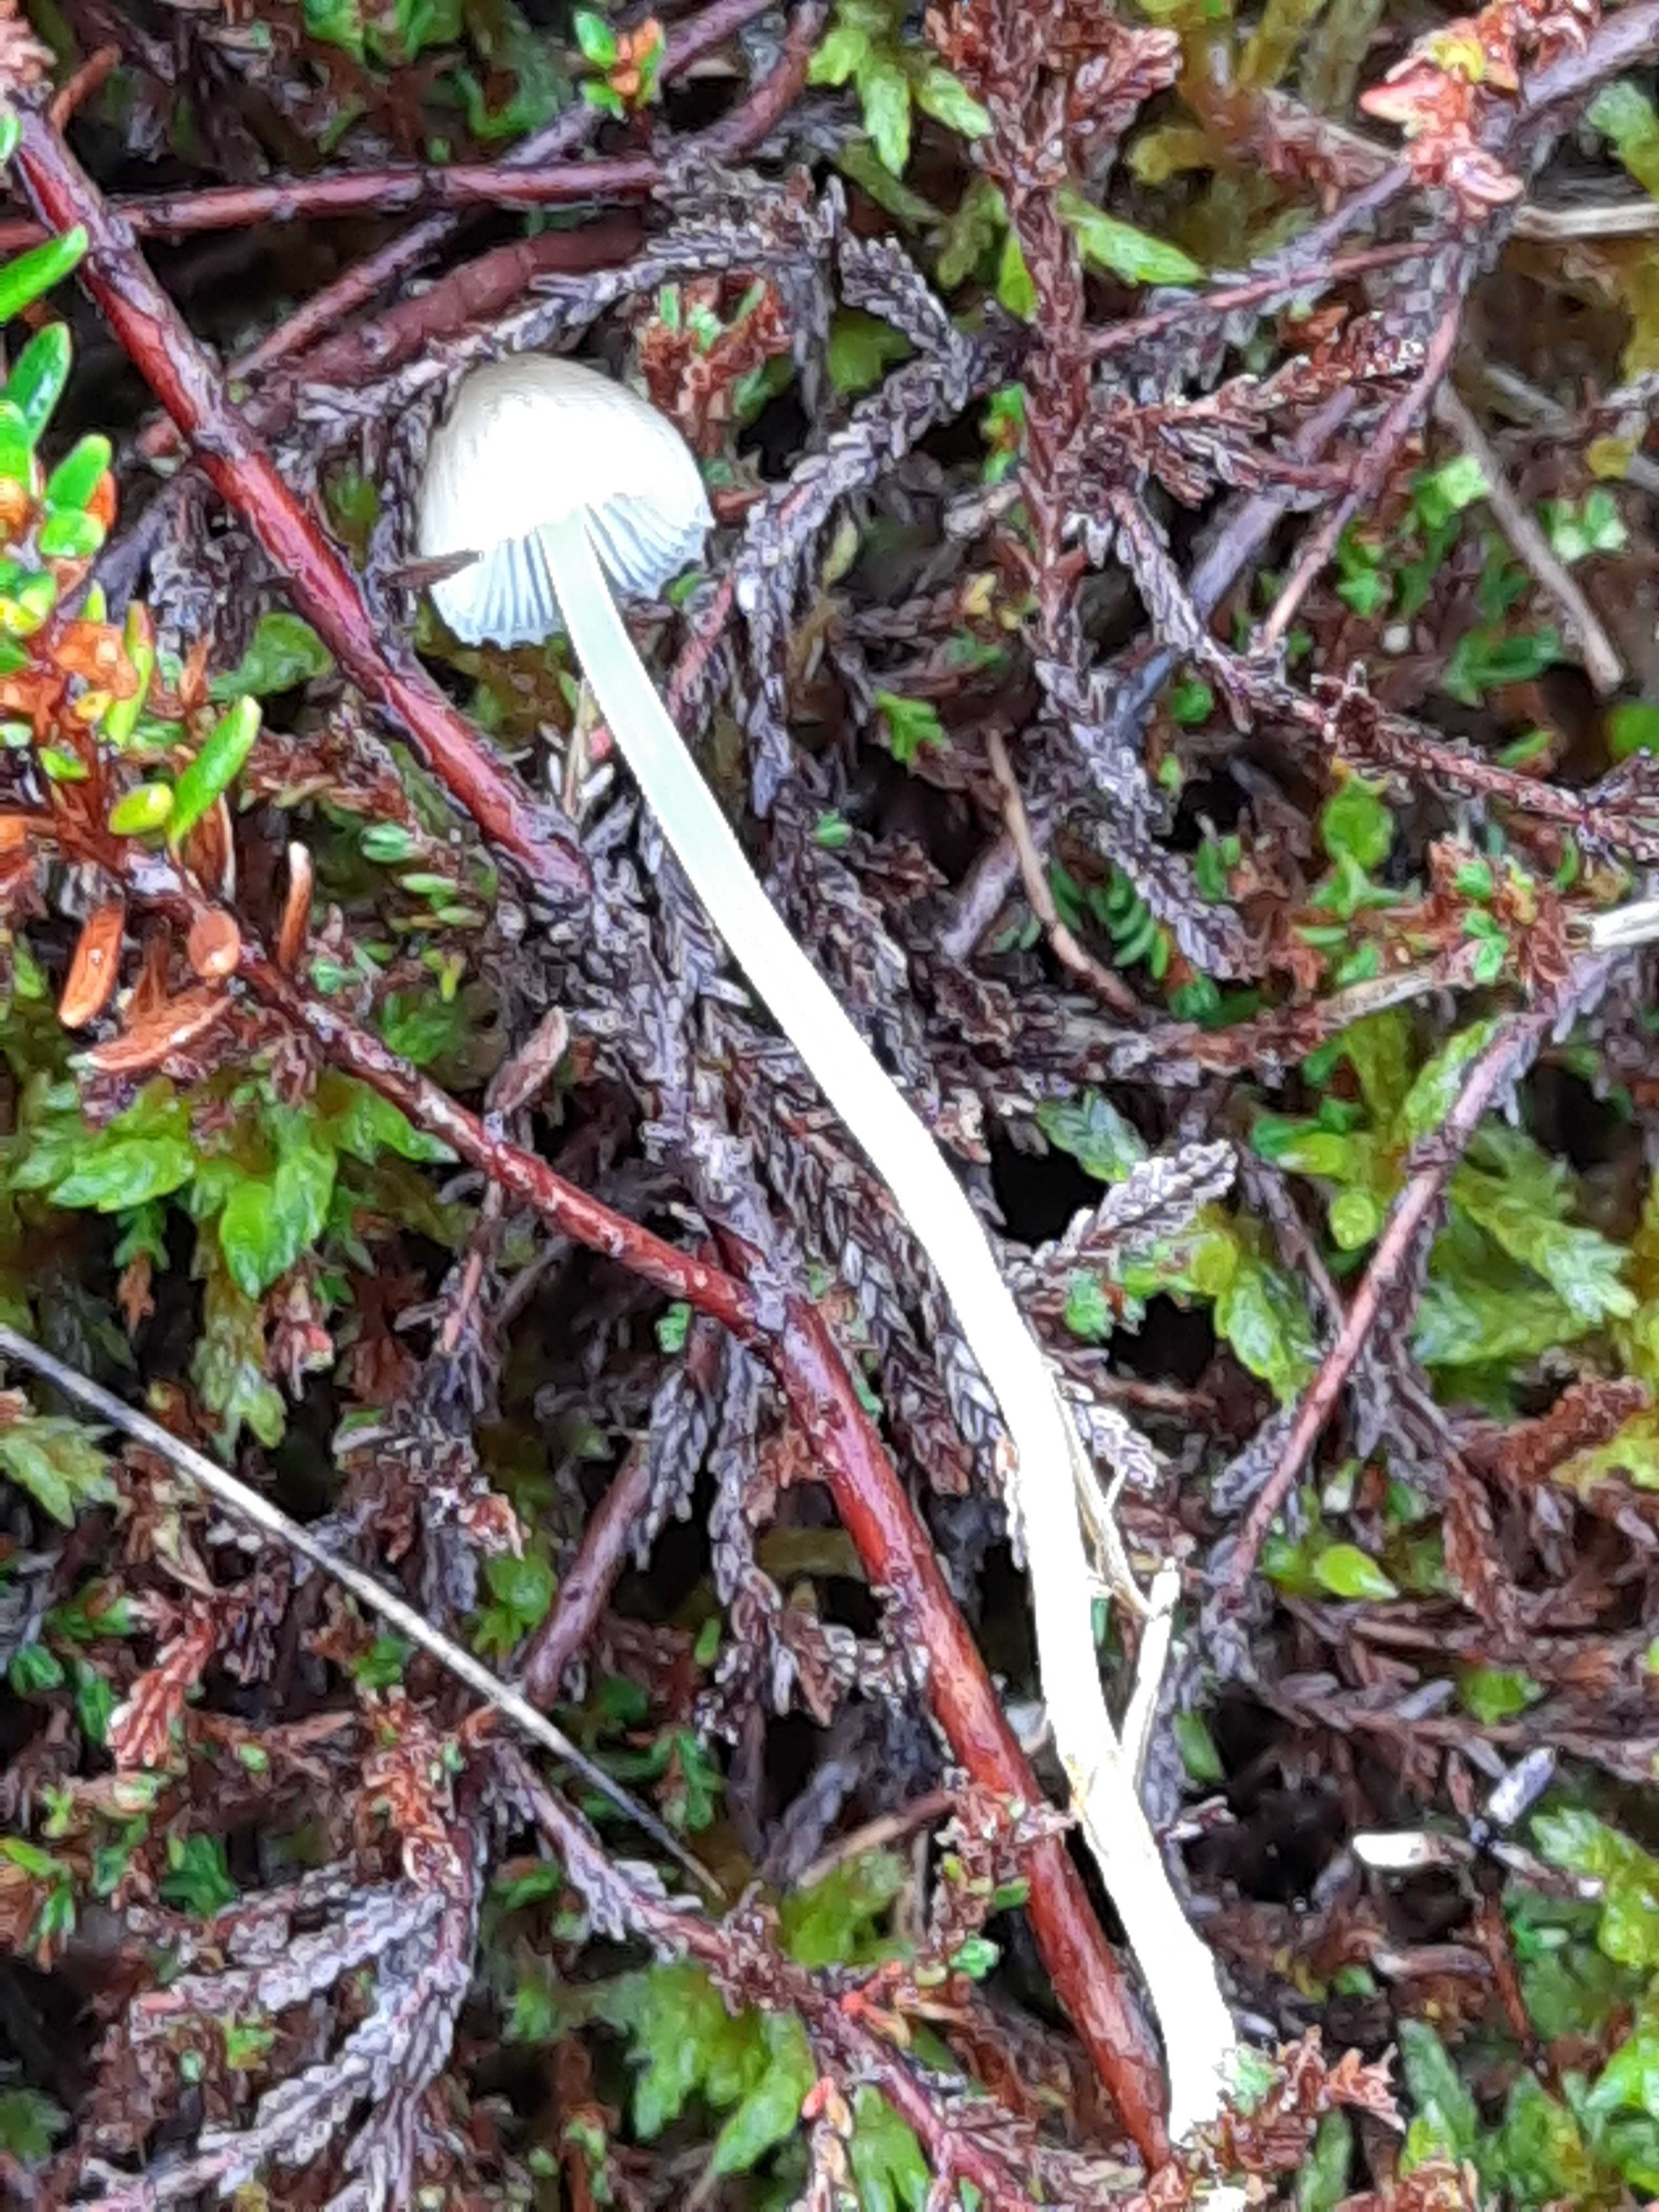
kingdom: Fungi
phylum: Basidiomycota
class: Agaricomycetes
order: Agaricales
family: Mycenaceae
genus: Mycena
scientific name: Mycena epipterygia
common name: gulstokket huesvamp
